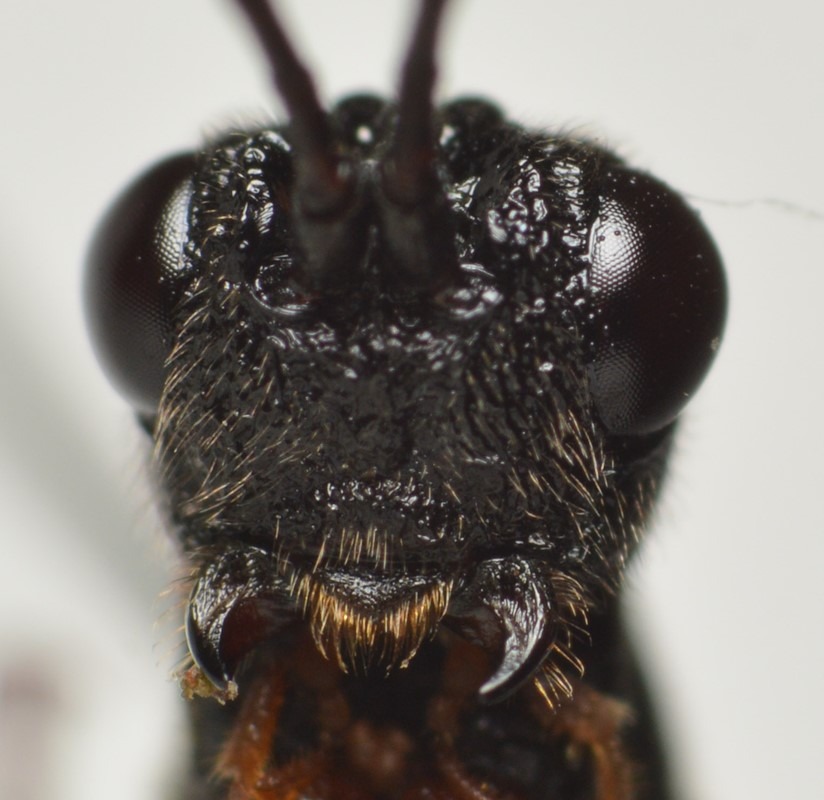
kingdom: Animalia
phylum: Arthropoda
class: Insecta
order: Hymenoptera
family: Braconidae
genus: Helcon
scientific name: Helcon angustator
